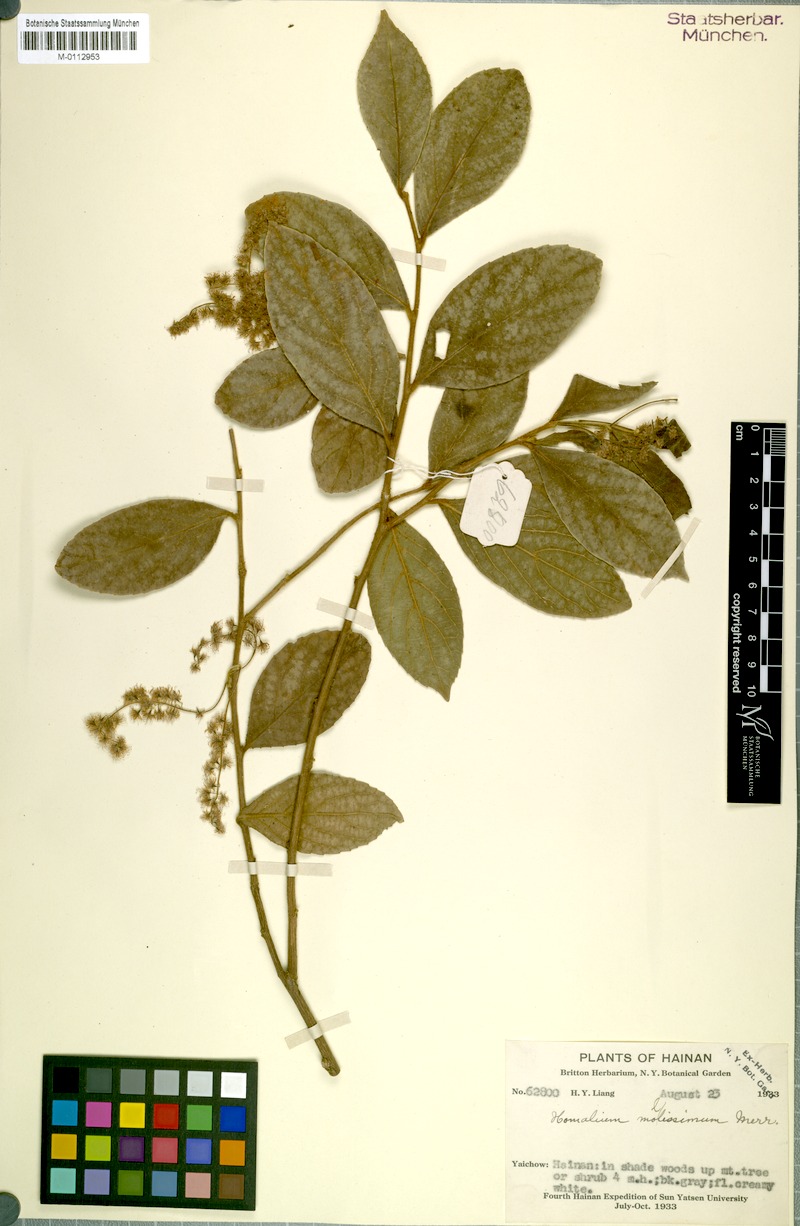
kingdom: Plantae
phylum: Tracheophyta
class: Magnoliopsida
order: Malpighiales
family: Salicaceae
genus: Homalium
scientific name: Homalium mollissimum
